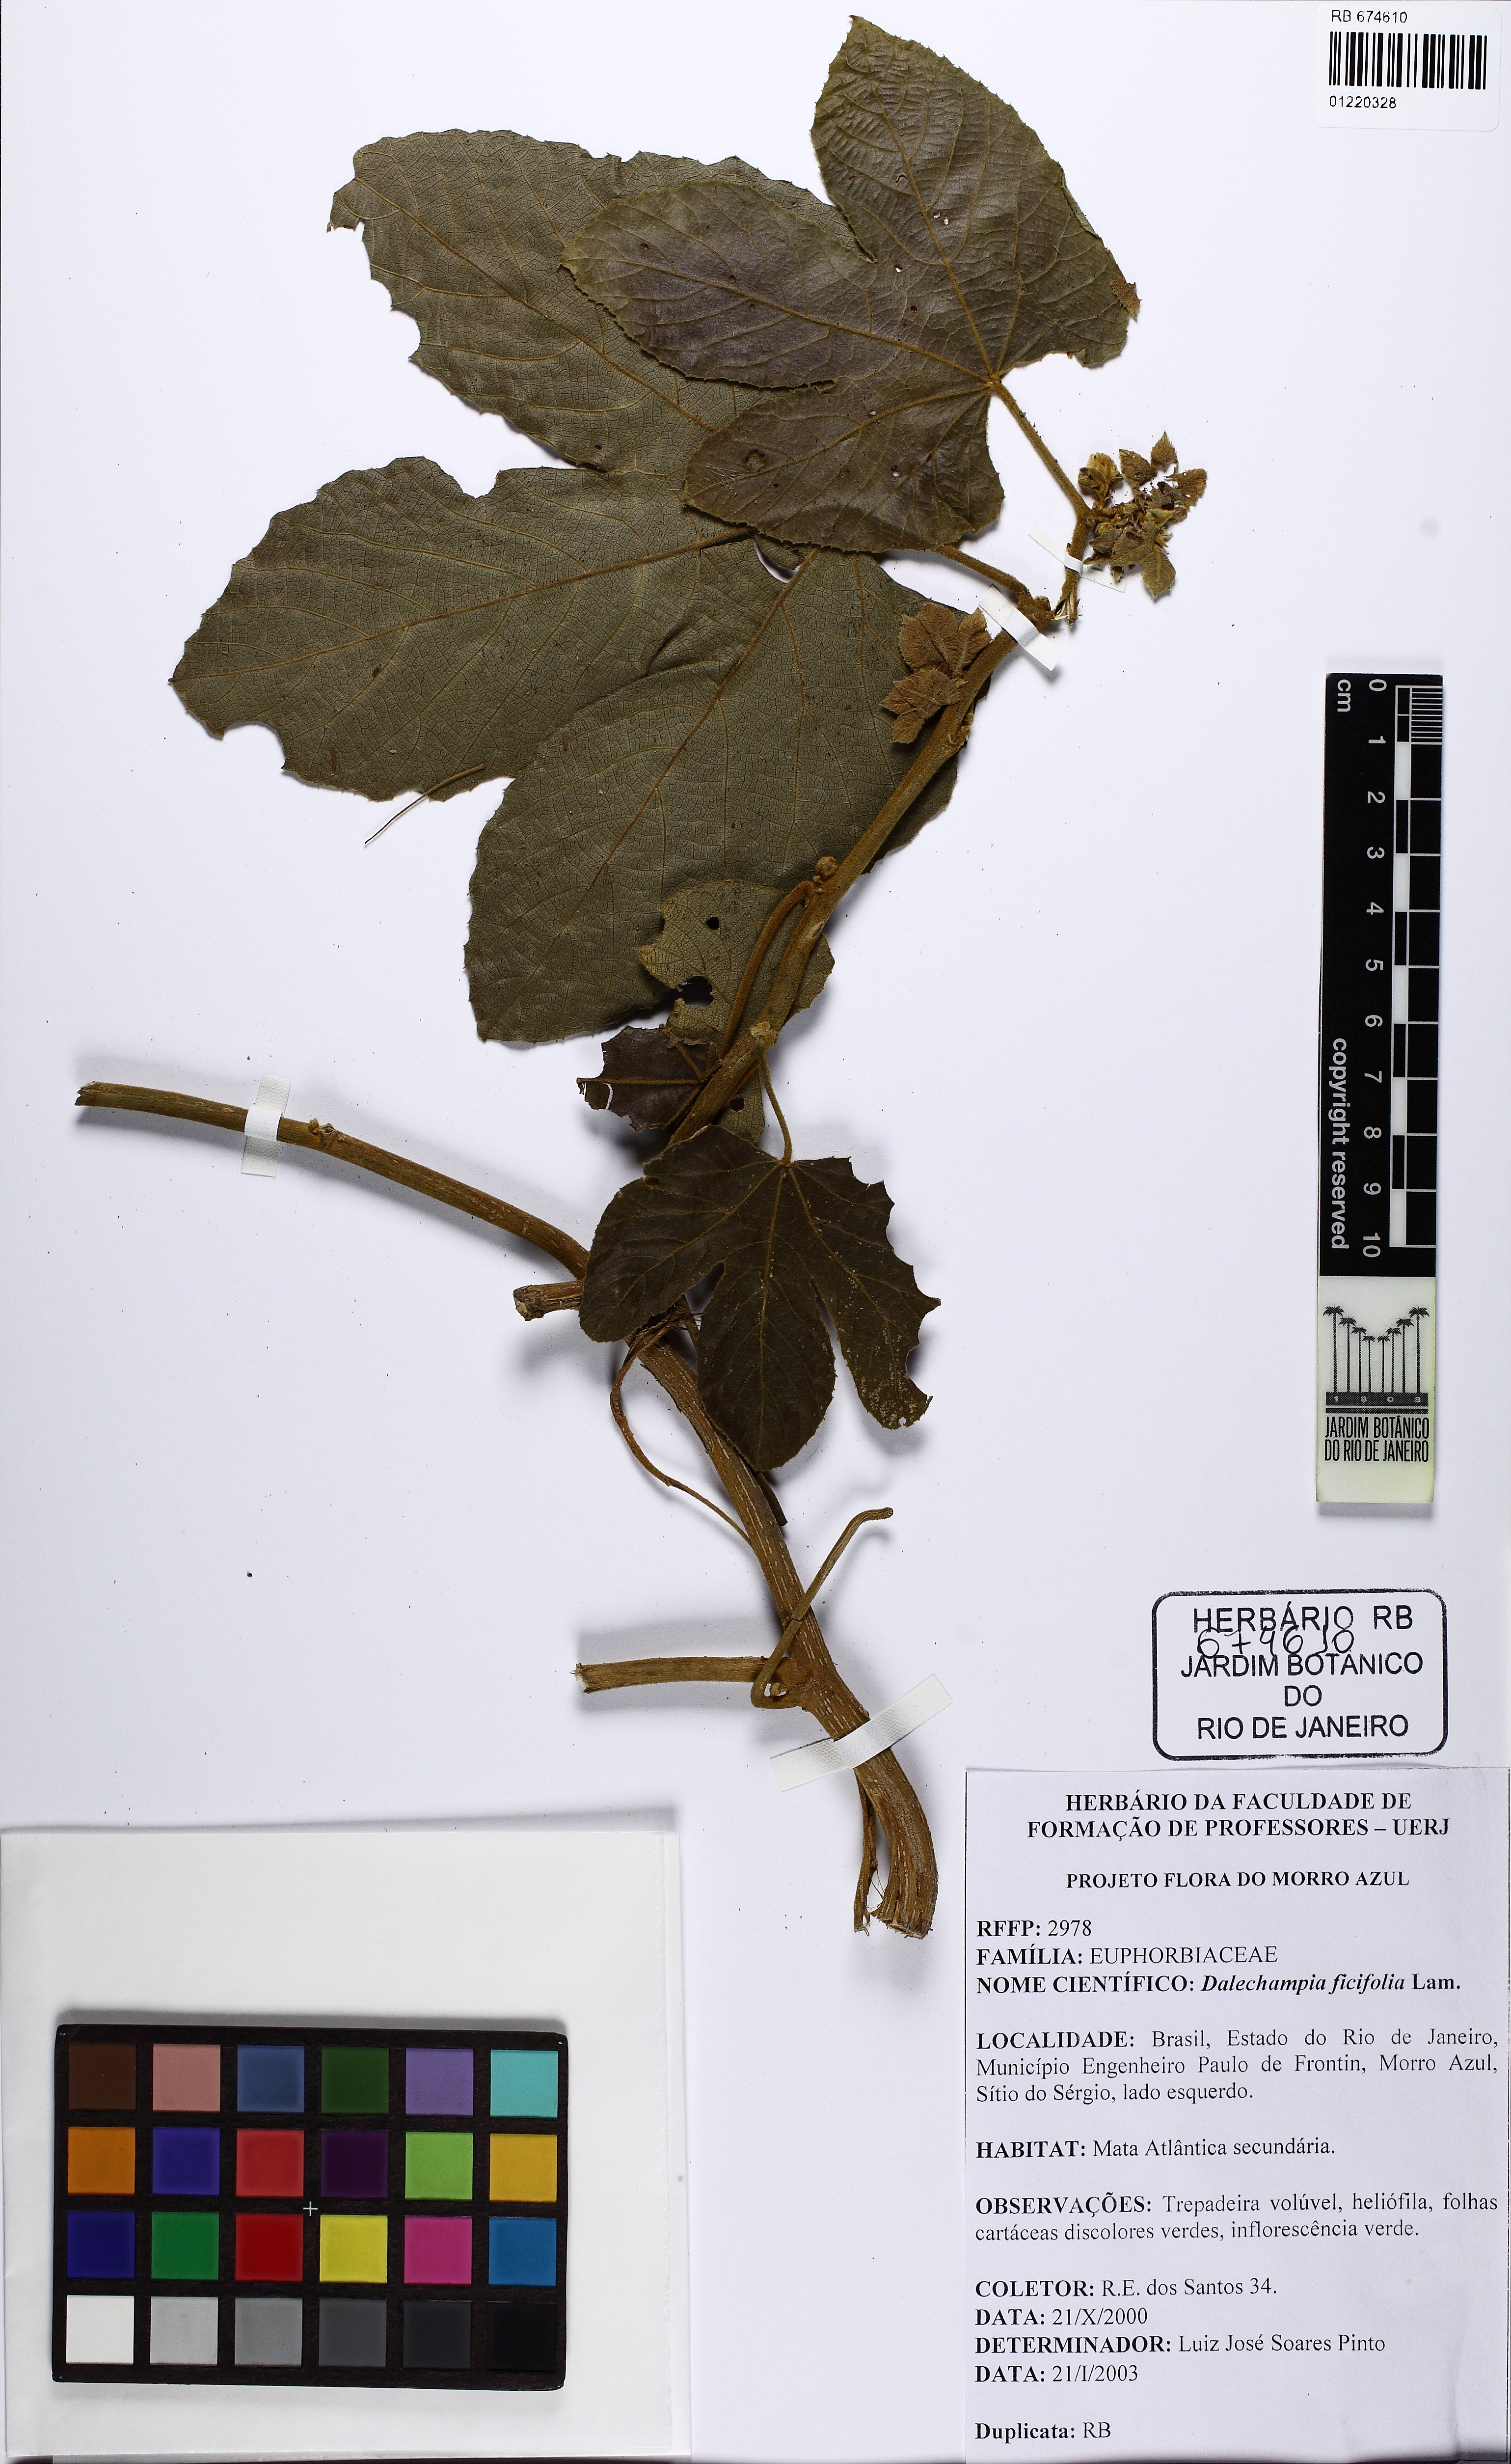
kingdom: Plantae
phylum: Tracheophyta
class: Magnoliopsida
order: Malpighiales
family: Euphorbiaceae
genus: Dalechampia
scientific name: Dalechampia ficifolia
